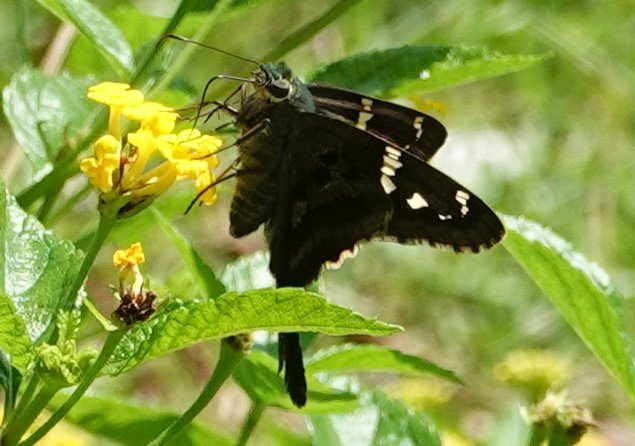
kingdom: Animalia
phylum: Arthropoda
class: Insecta
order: Lepidoptera
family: Hesperiidae
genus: Urbanus
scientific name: Urbanus proteus
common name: Long-tailed Skipper
